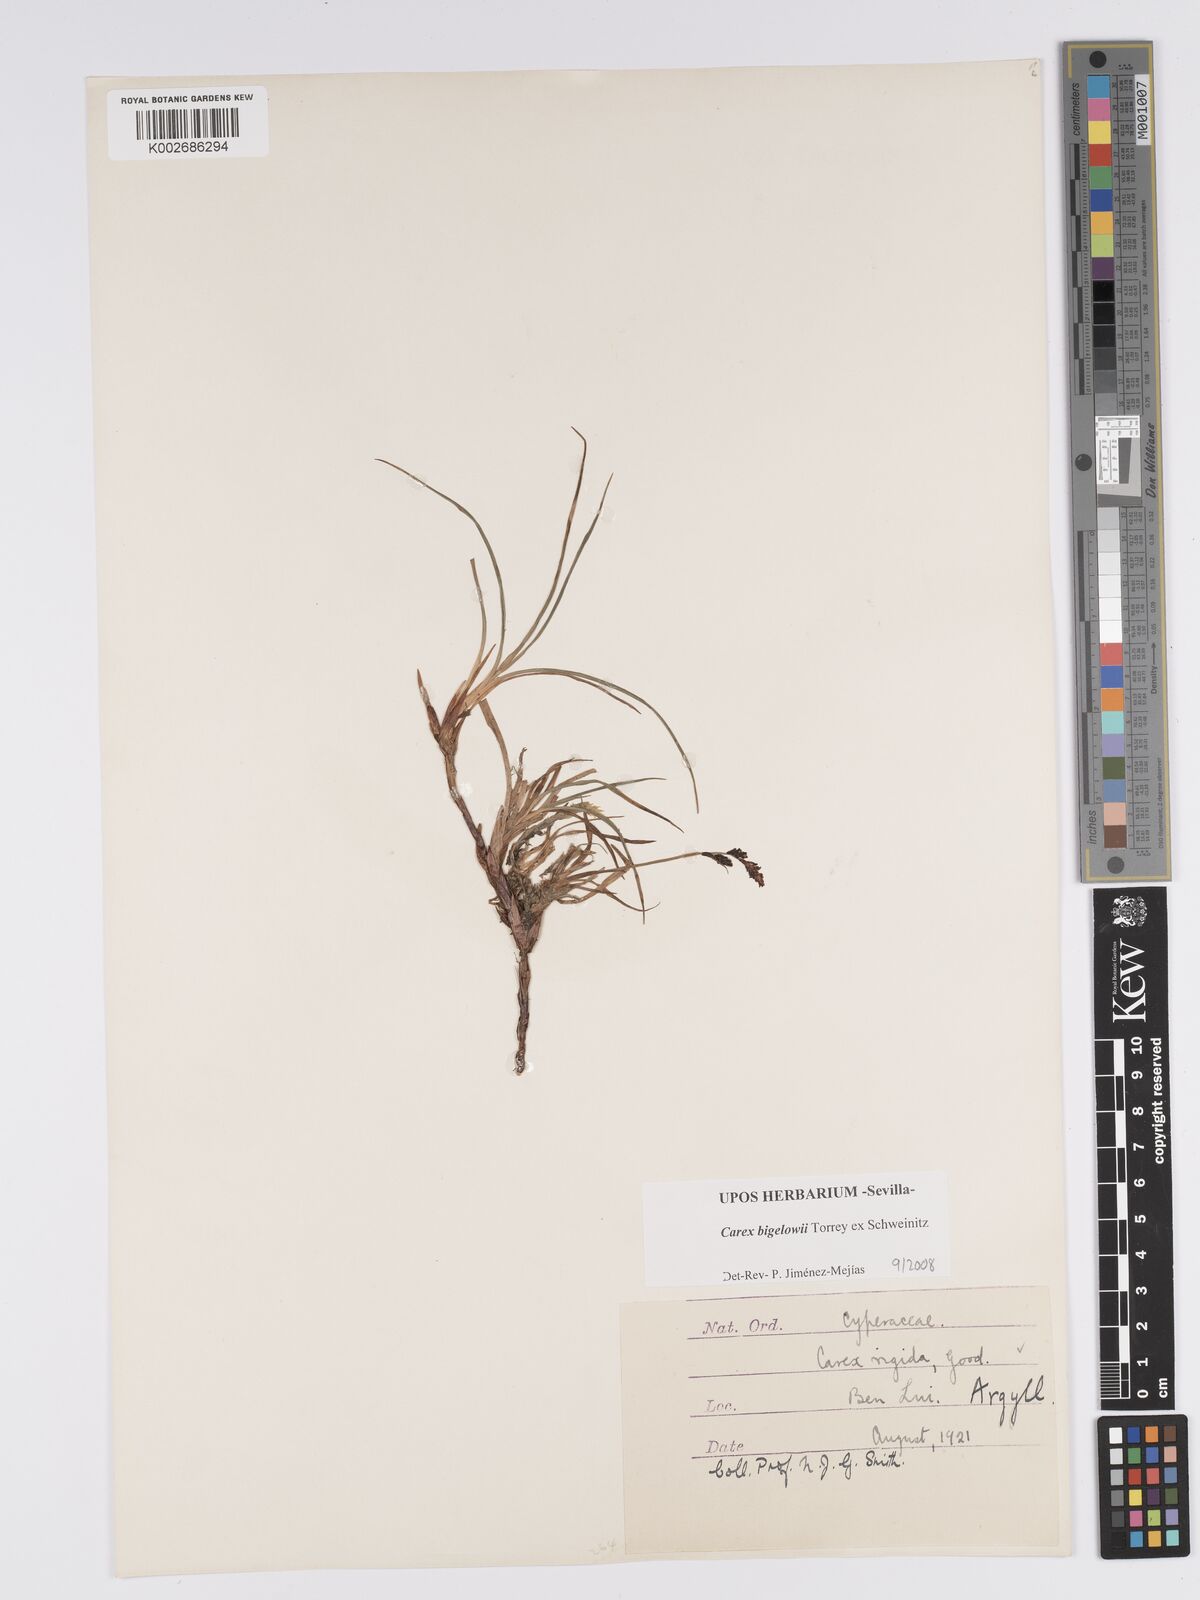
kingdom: Plantae
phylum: Tracheophyta
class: Liliopsida
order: Poales
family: Cyperaceae
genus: Carex
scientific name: Carex bigelowii
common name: Stiff sedge
